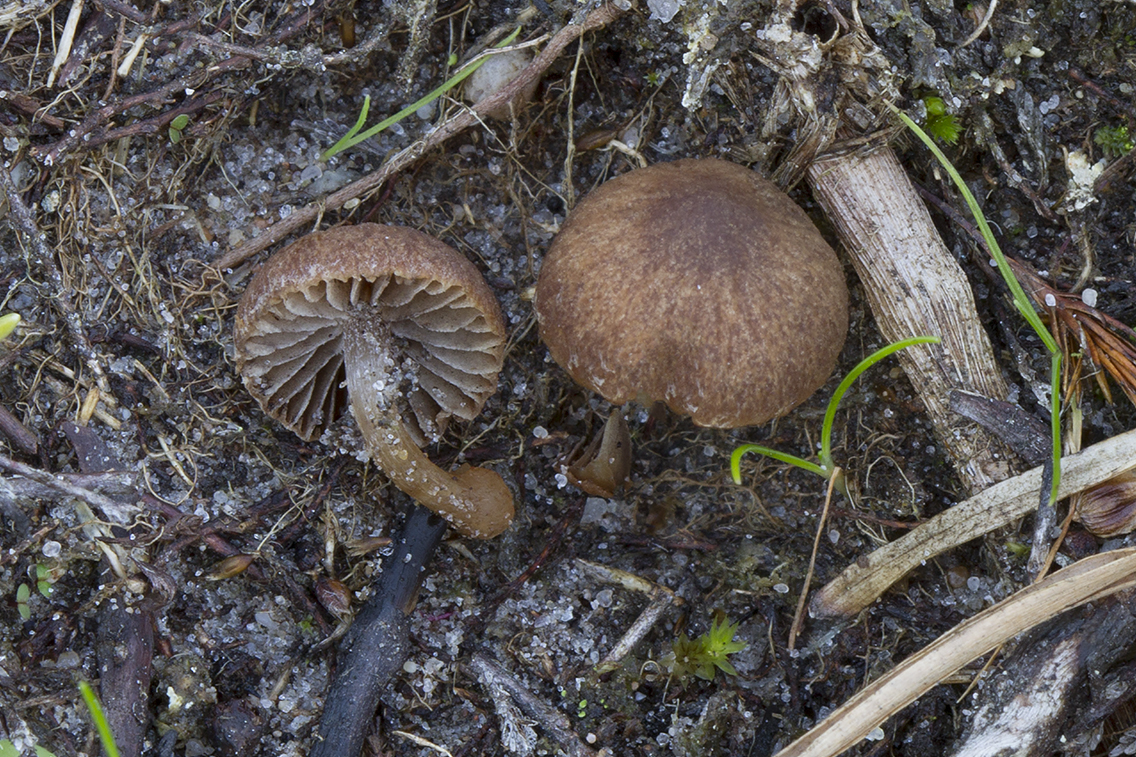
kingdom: Fungi
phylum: Basidiomycota
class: Agaricomycetes
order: Agaricales
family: Psathyrellaceae
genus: Psathyrella
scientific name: Psathyrella flexispora
